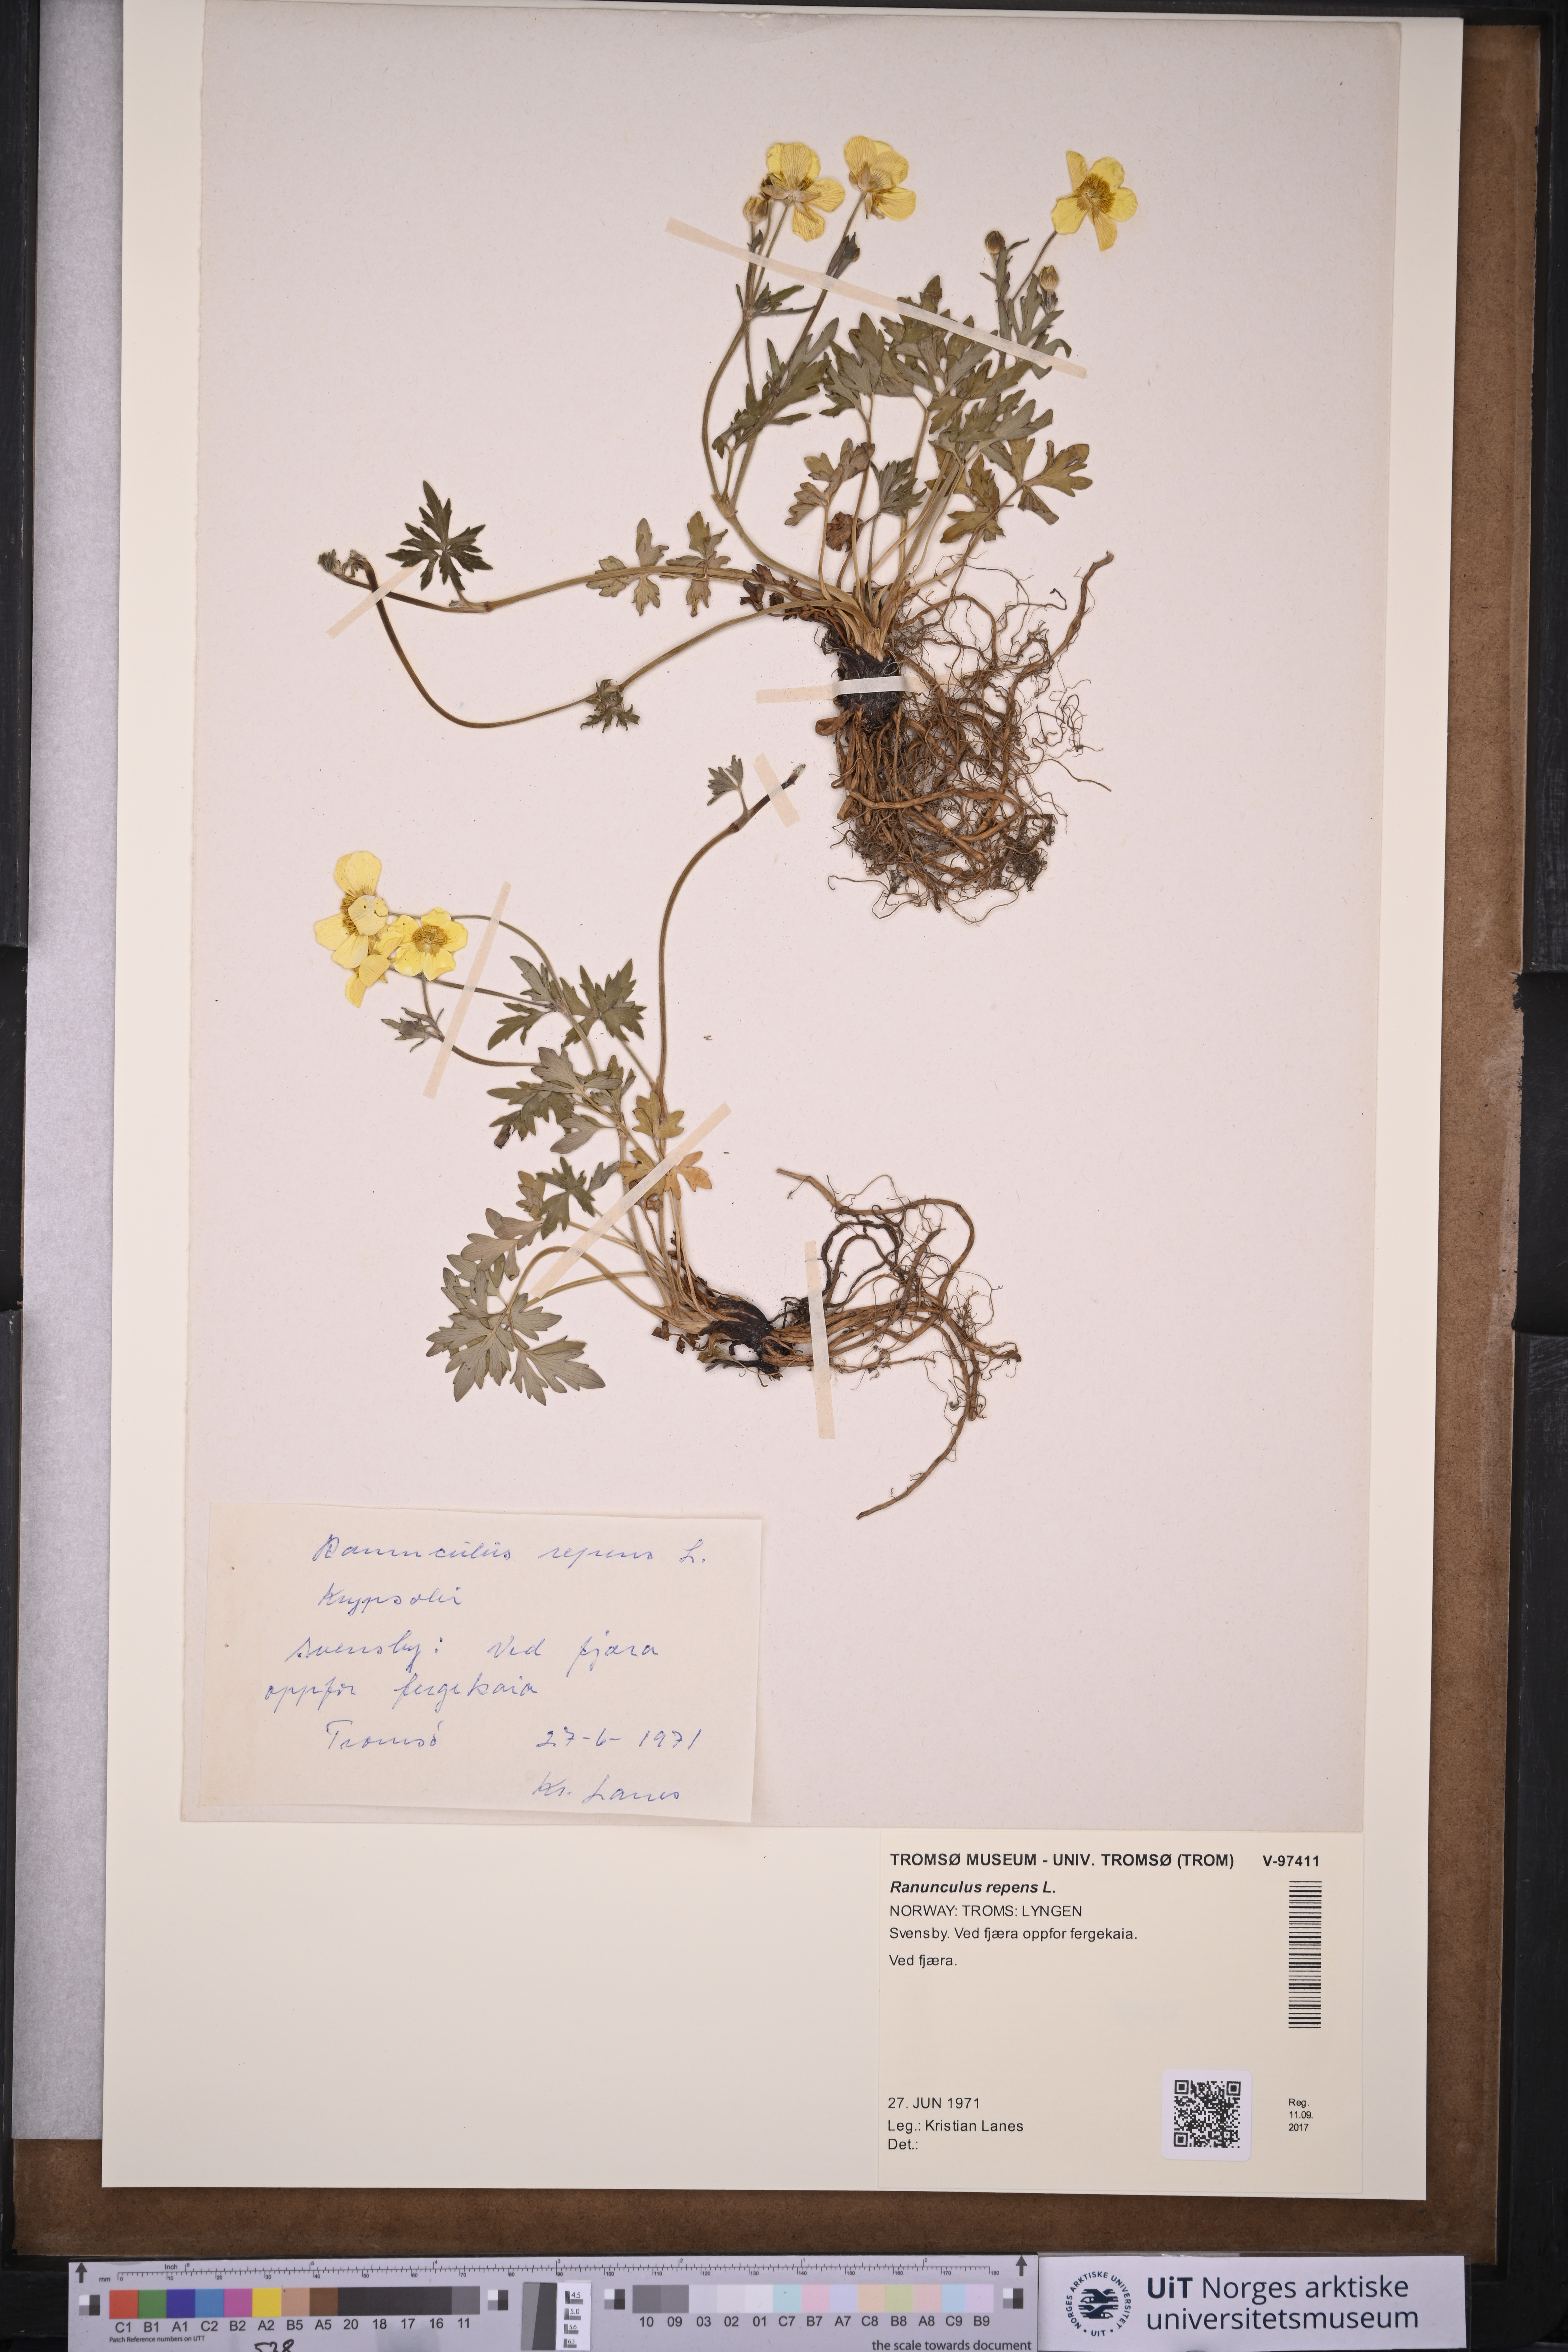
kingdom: Plantae
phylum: Tracheophyta
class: Magnoliopsida
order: Ranunculales
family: Ranunculaceae
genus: Ranunculus
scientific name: Ranunculus repens
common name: Creeping buttercup
